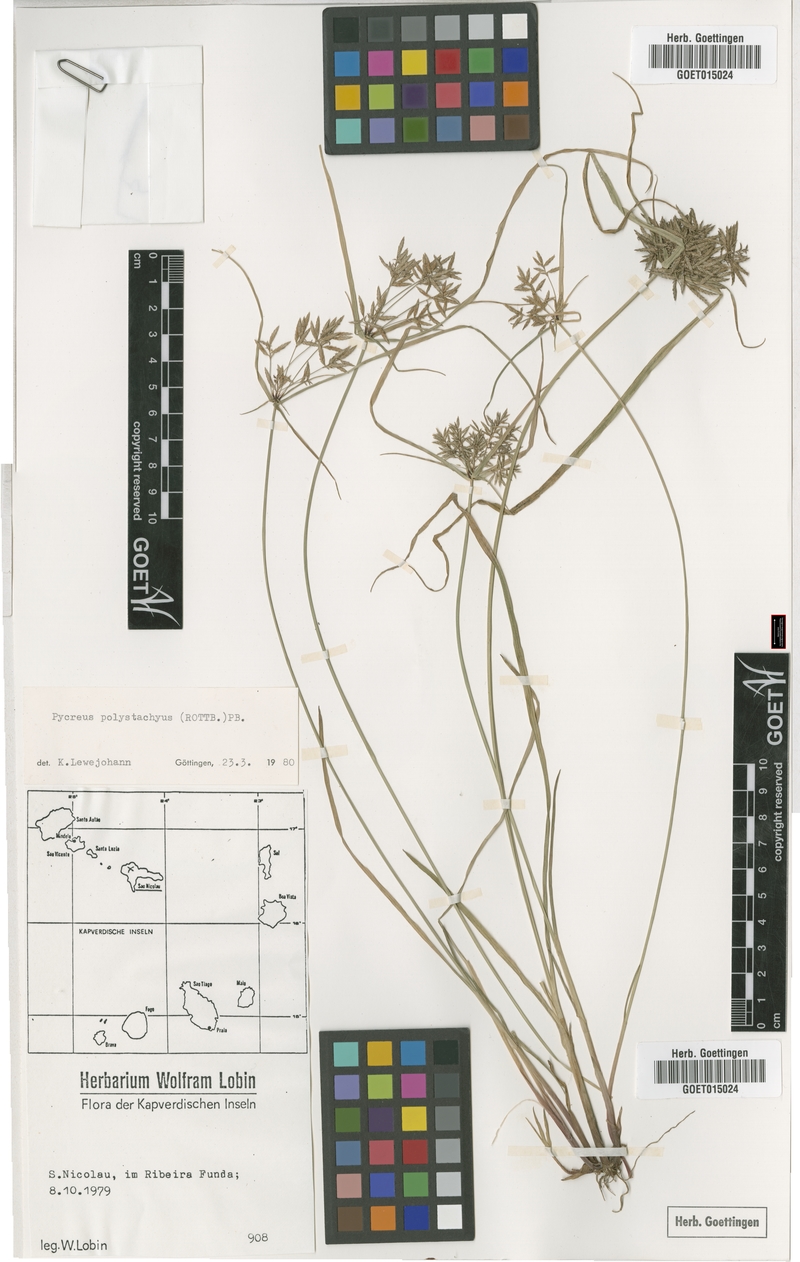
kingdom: Plantae
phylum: Tracheophyta
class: Liliopsida
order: Poales
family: Cyperaceae
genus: Cyperus
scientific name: Cyperus polystachyos
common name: Bunchy flat sedge
